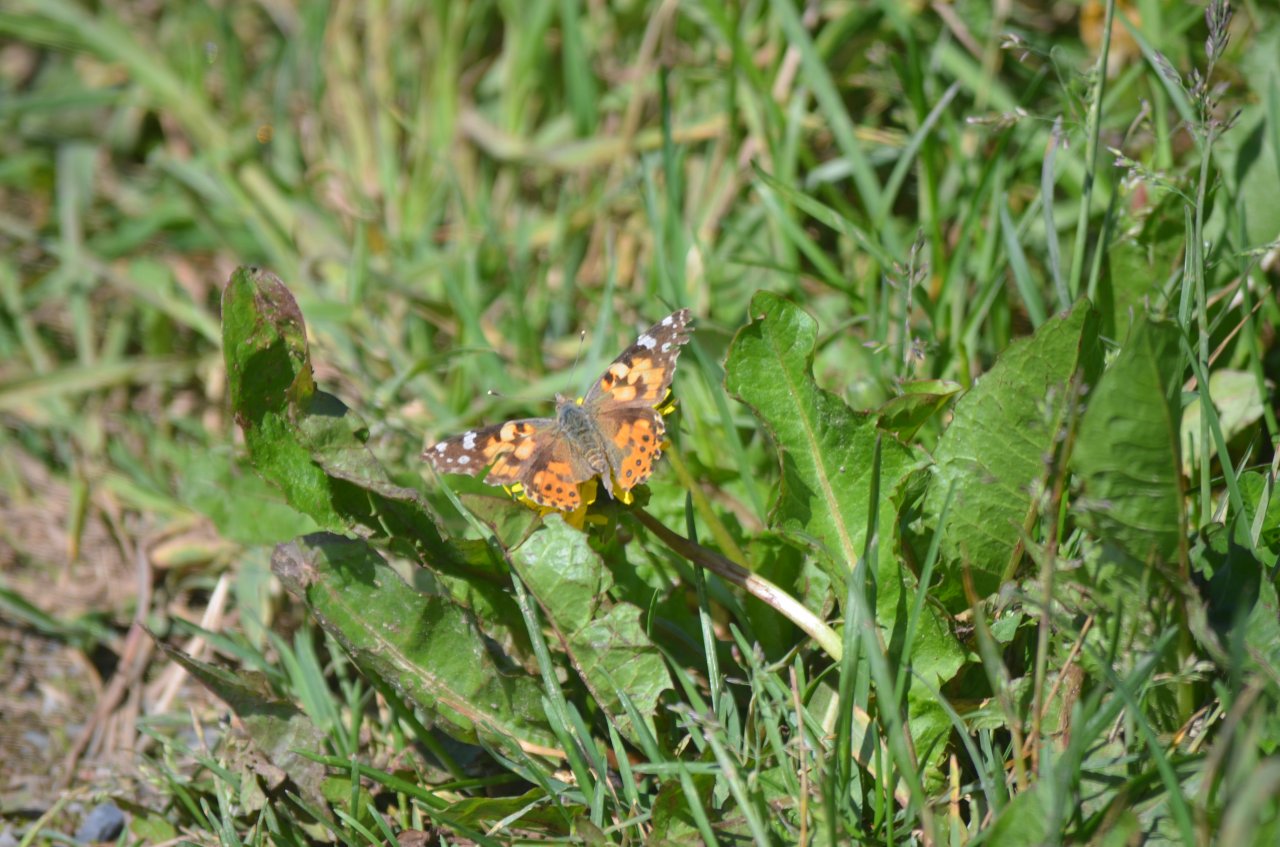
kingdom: Animalia
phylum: Arthropoda
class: Insecta
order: Lepidoptera
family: Nymphalidae
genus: Vanessa
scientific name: Vanessa cardui
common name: Painted Lady
